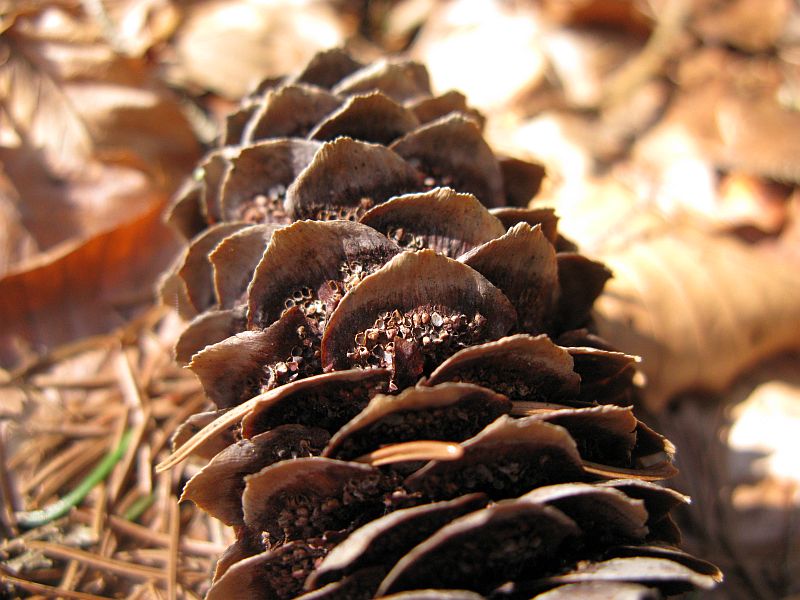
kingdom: Fungi
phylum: Basidiomycota
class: Pucciniomycetes
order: Pucciniales
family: Pucciniastraceae
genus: Thekopsora
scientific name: Thekopsora areolata
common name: grankogle-nålerust
